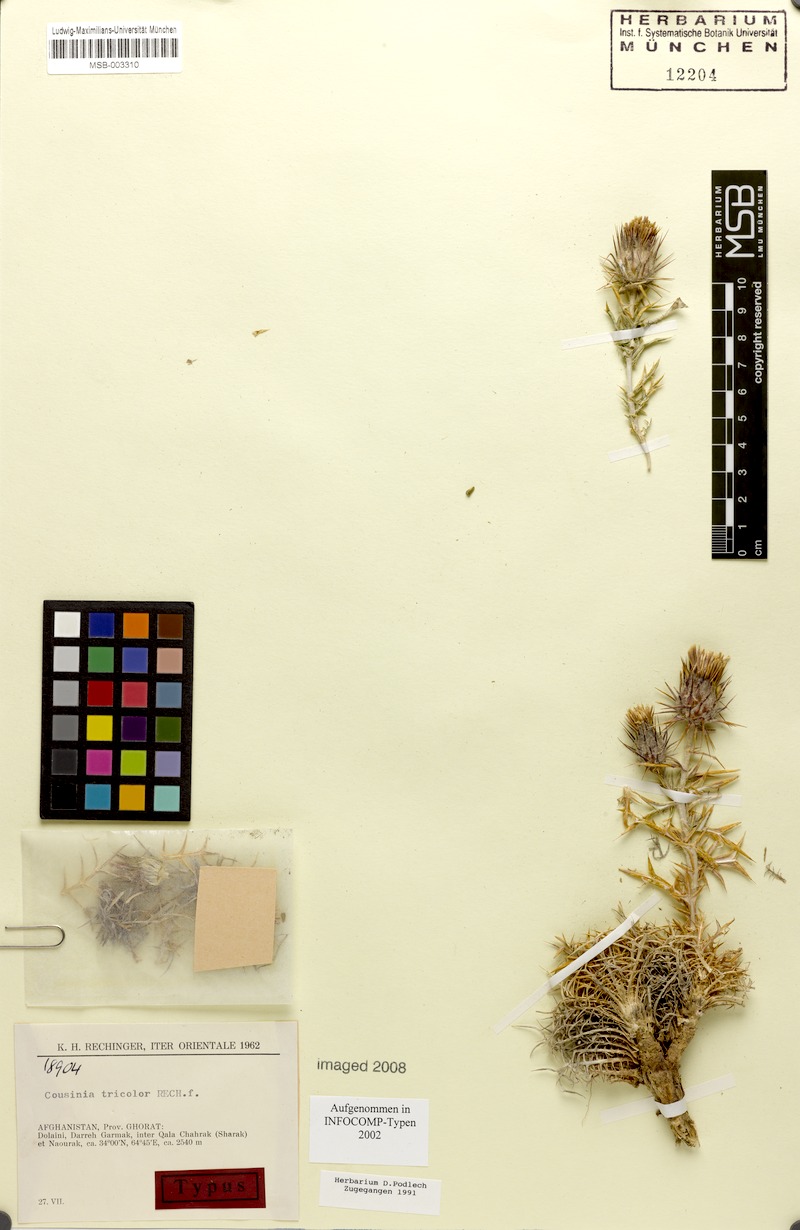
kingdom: Plantae
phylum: Tracheophyta
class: Magnoliopsida
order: Asterales
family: Asteraceae
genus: Cousinia
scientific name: Cousinia tricolor
